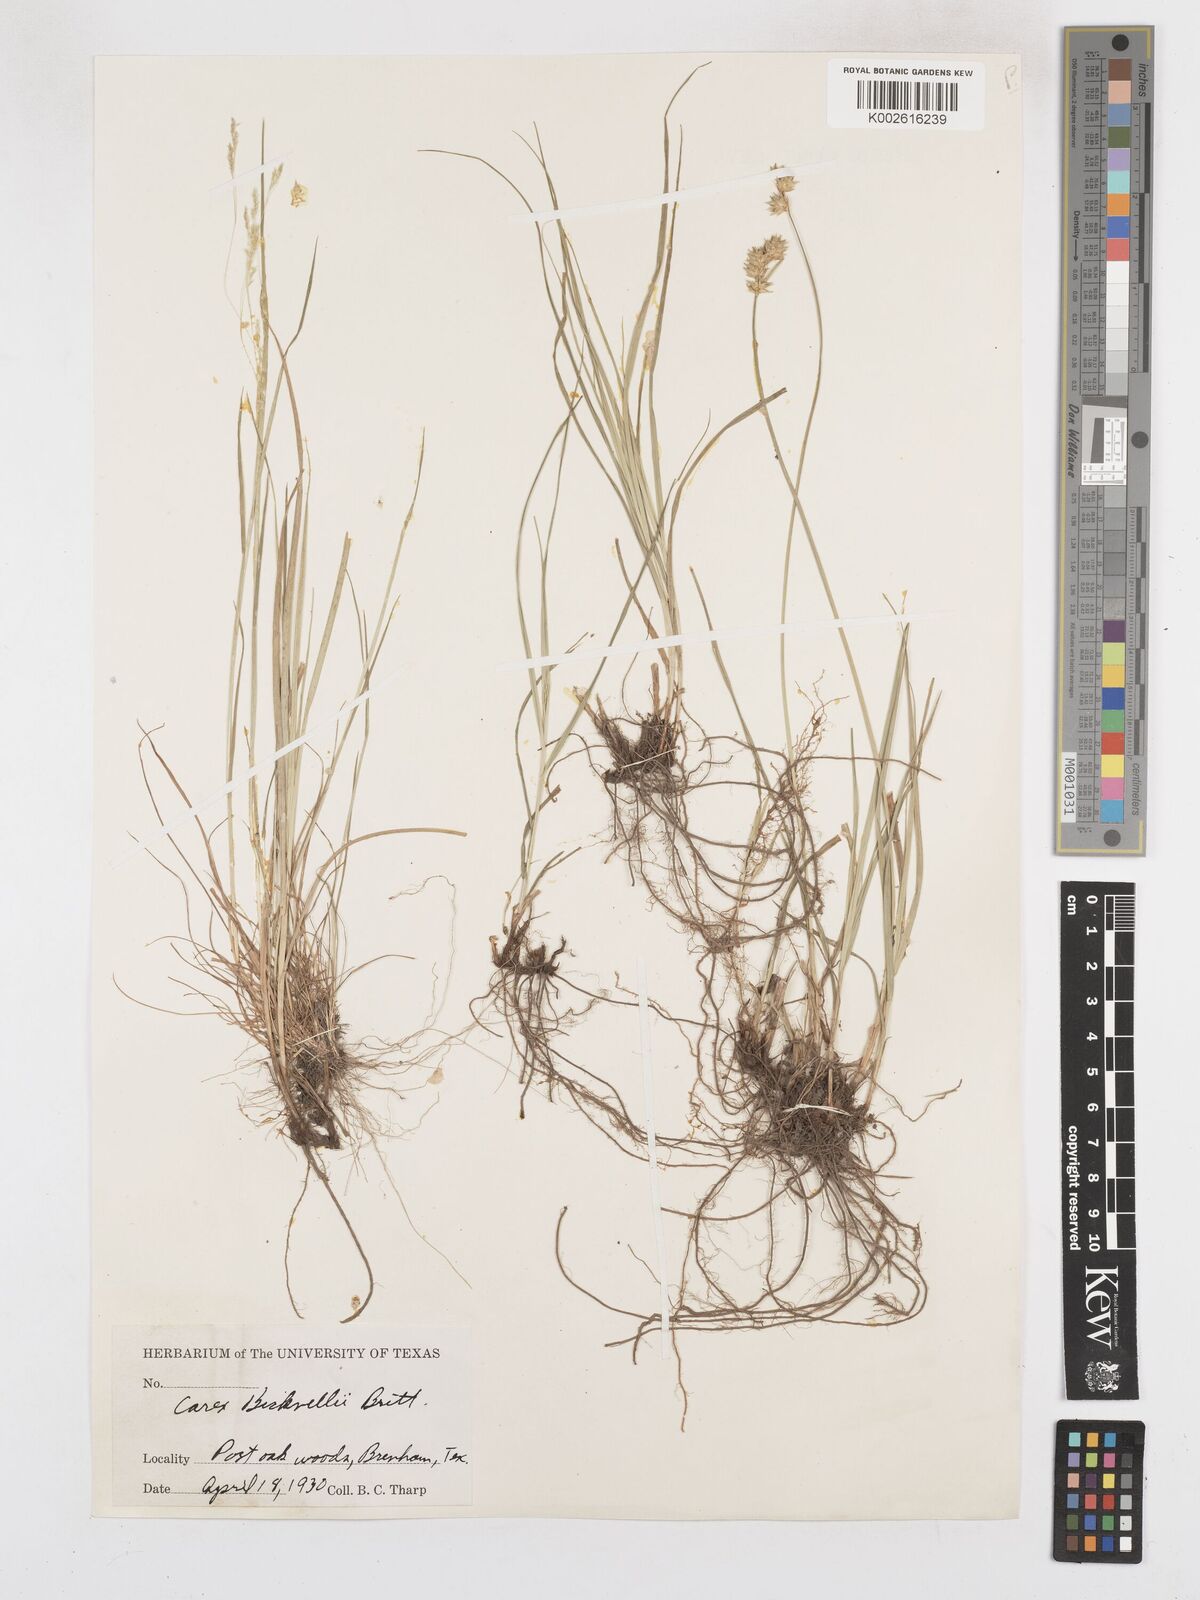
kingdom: Plantae
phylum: Tracheophyta
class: Liliopsida
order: Poales
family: Cyperaceae
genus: Carex
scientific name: Carex bicknellii
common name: Bicknell's sedge
